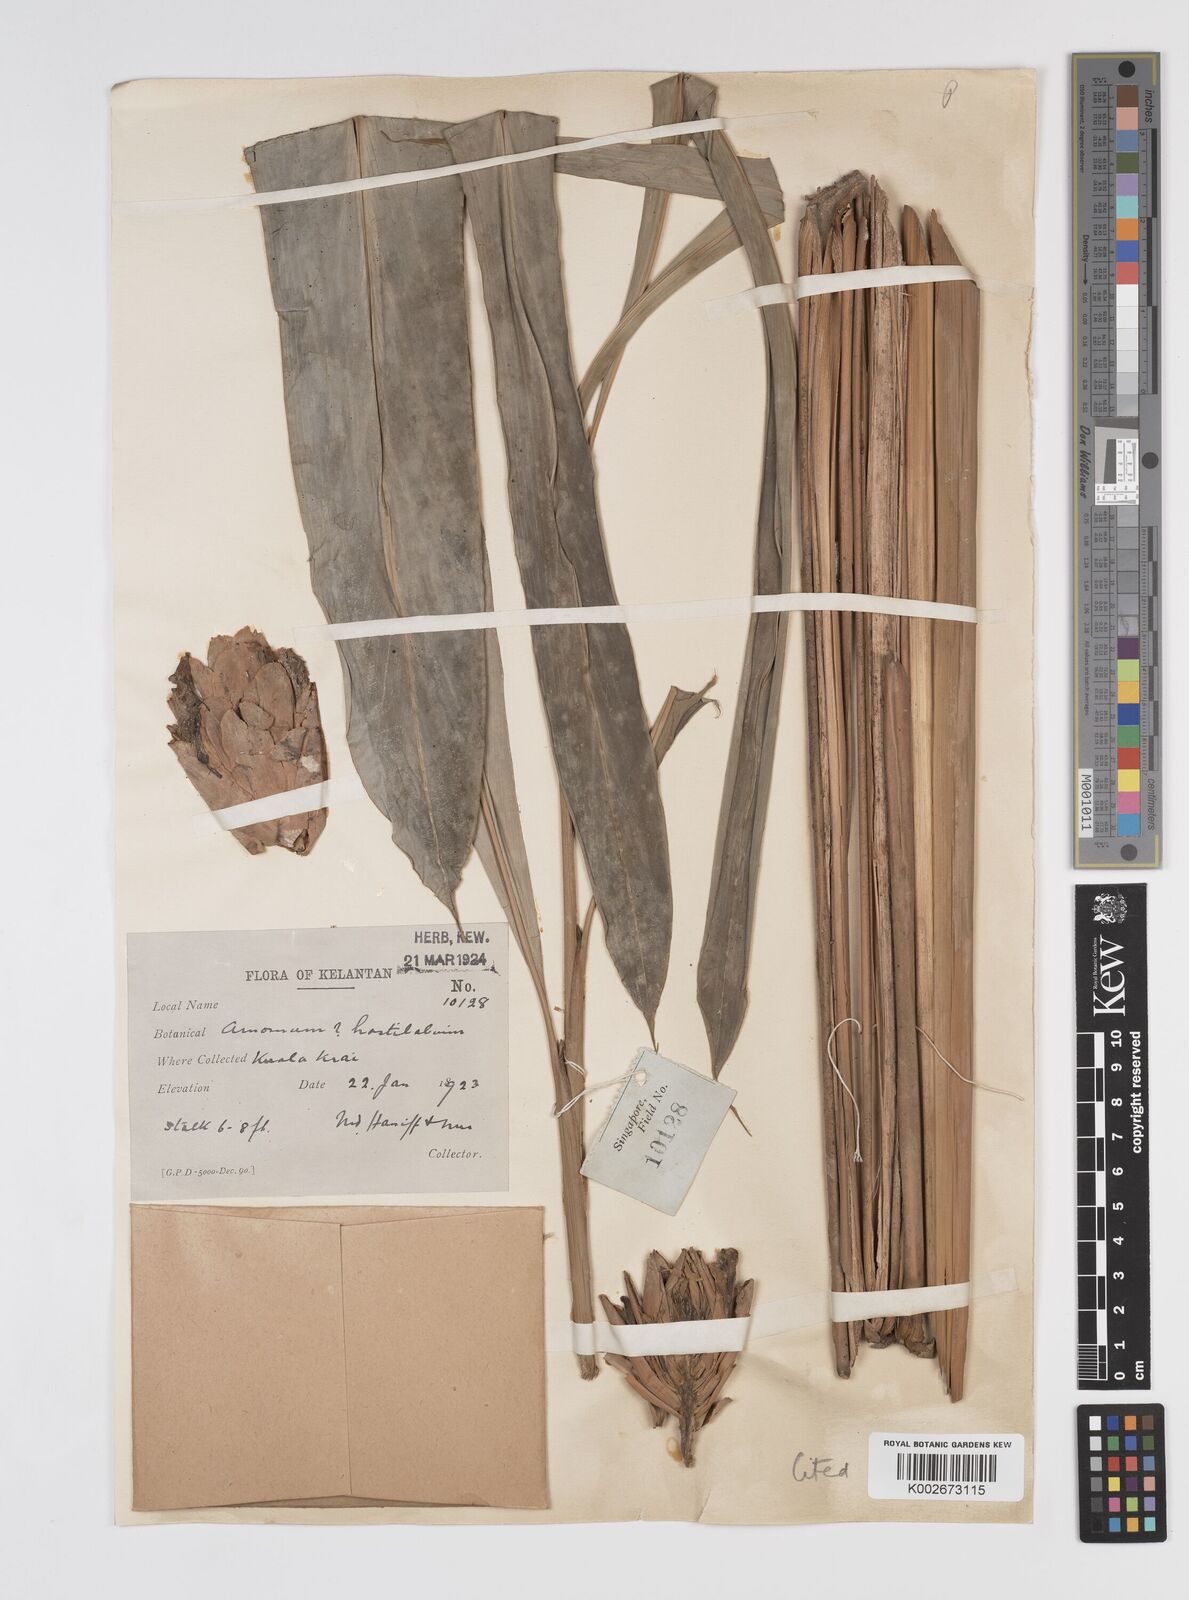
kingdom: Plantae
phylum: Tracheophyta
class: Liliopsida
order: Zingiberales
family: Zingiberaceae
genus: Sundamomum
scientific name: Sundamomum hastilabium
